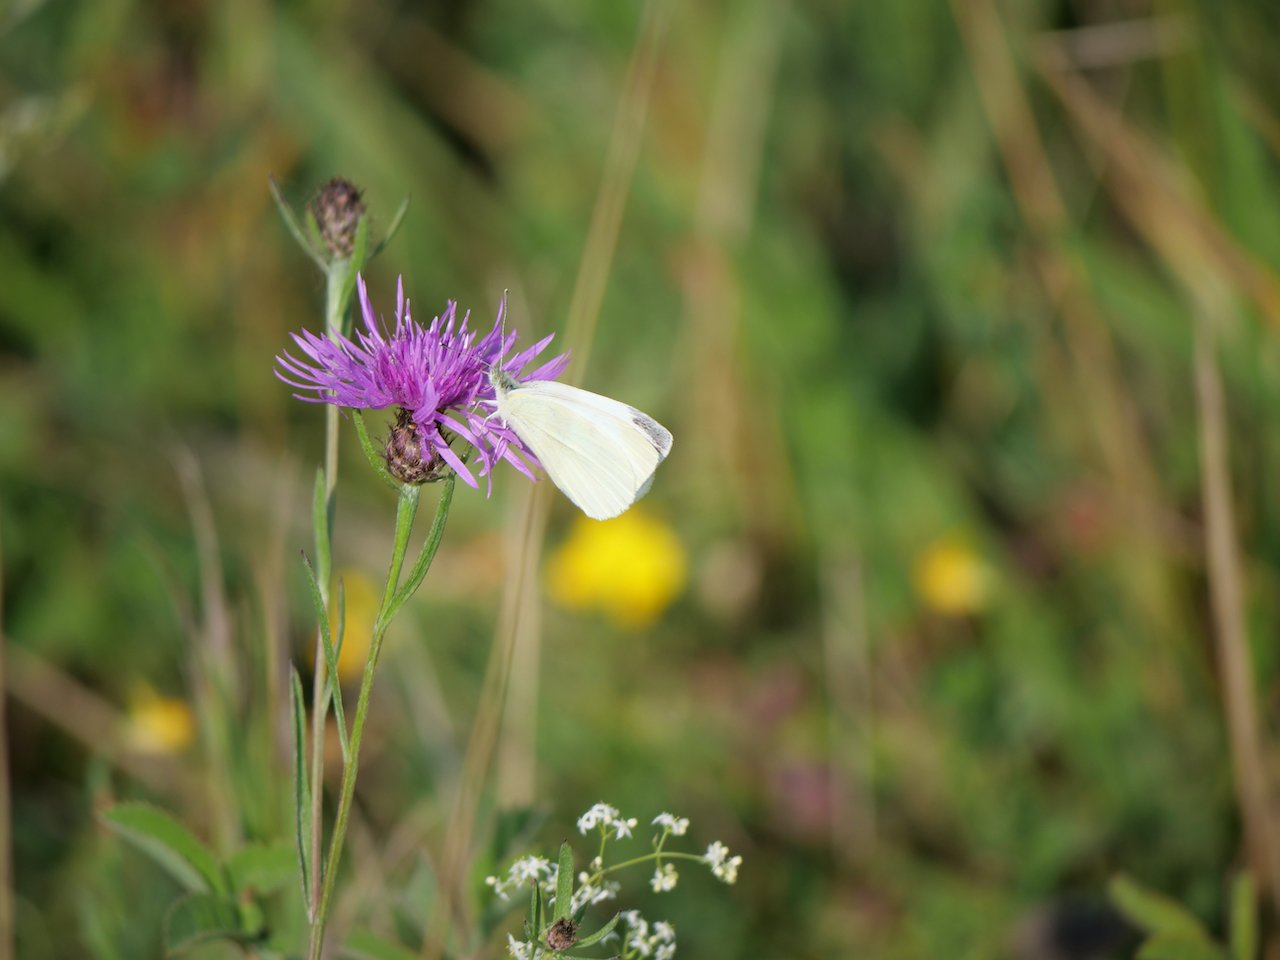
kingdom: Animalia
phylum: Arthropoda
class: Insecta
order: Lepidoptera
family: Pieridae
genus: Pieris
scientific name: Pieris rapae
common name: Cabbage White
